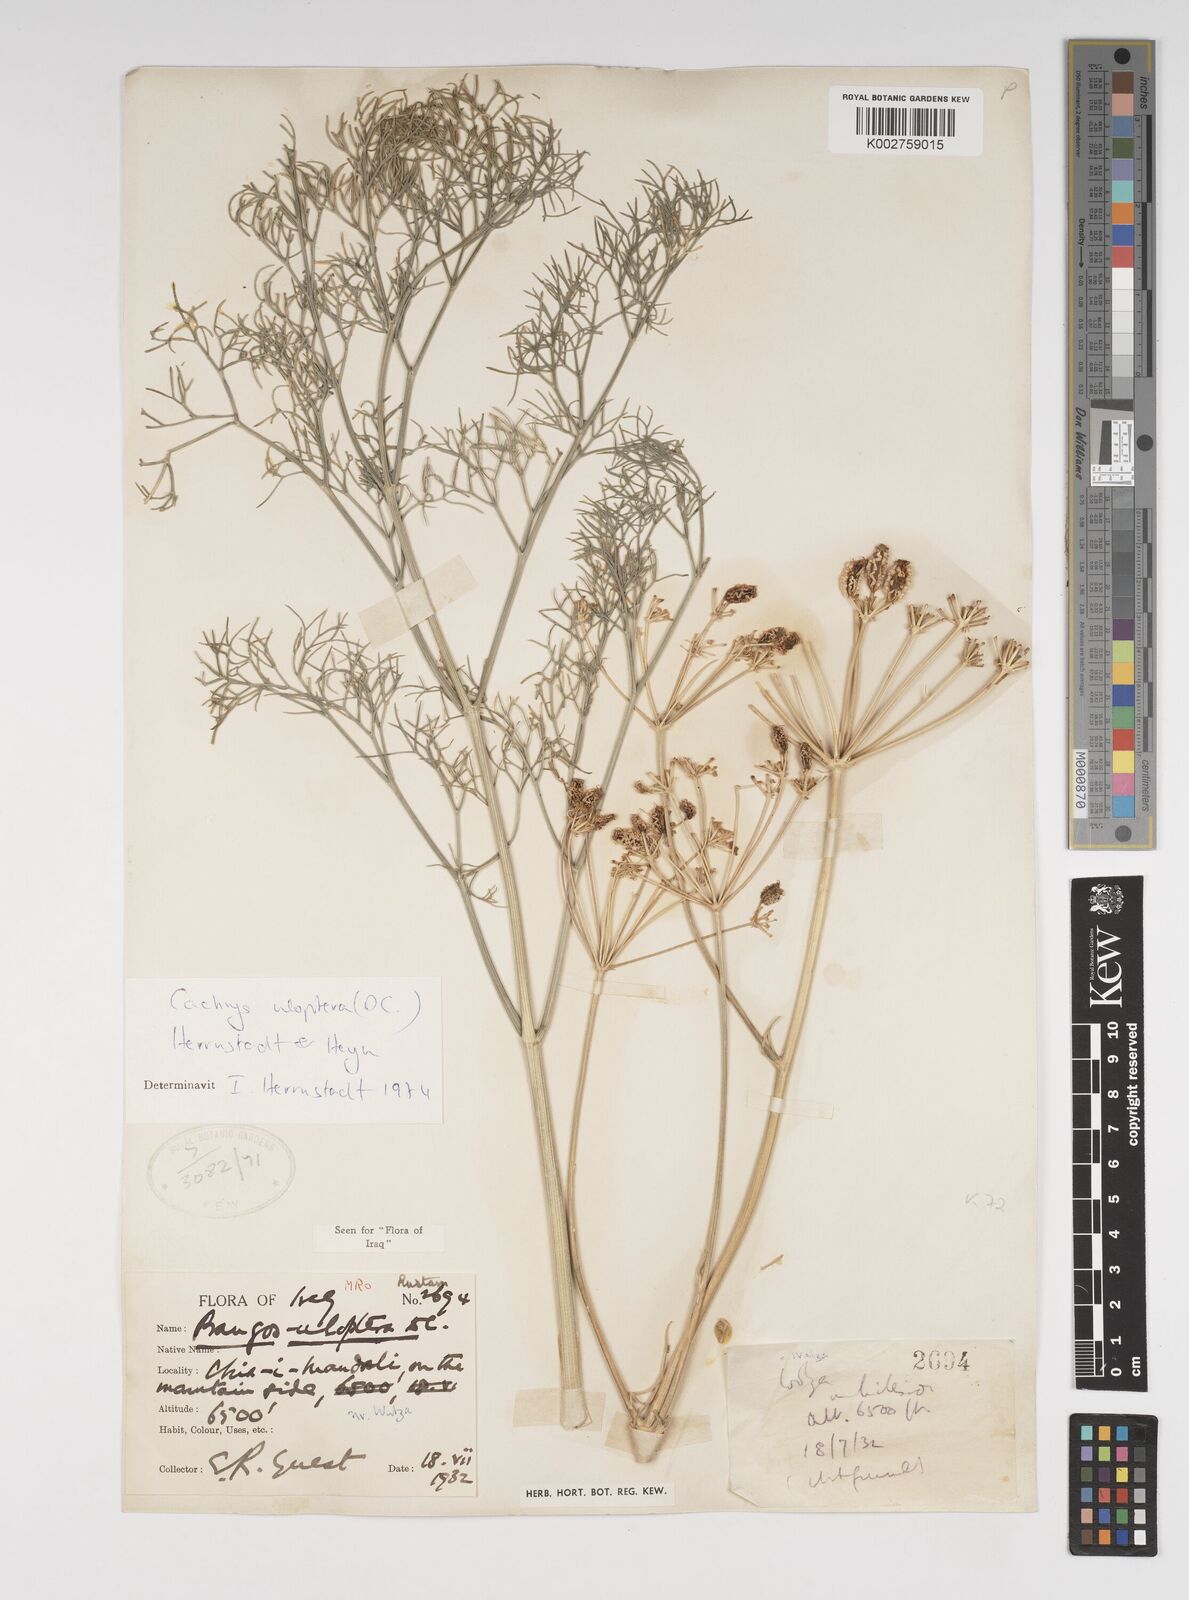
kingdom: Plantae
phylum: Tracheophyta
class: Magnoliopsida
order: Apiales
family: Apiaceae
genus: Prangos
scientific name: Prangos uloptera
